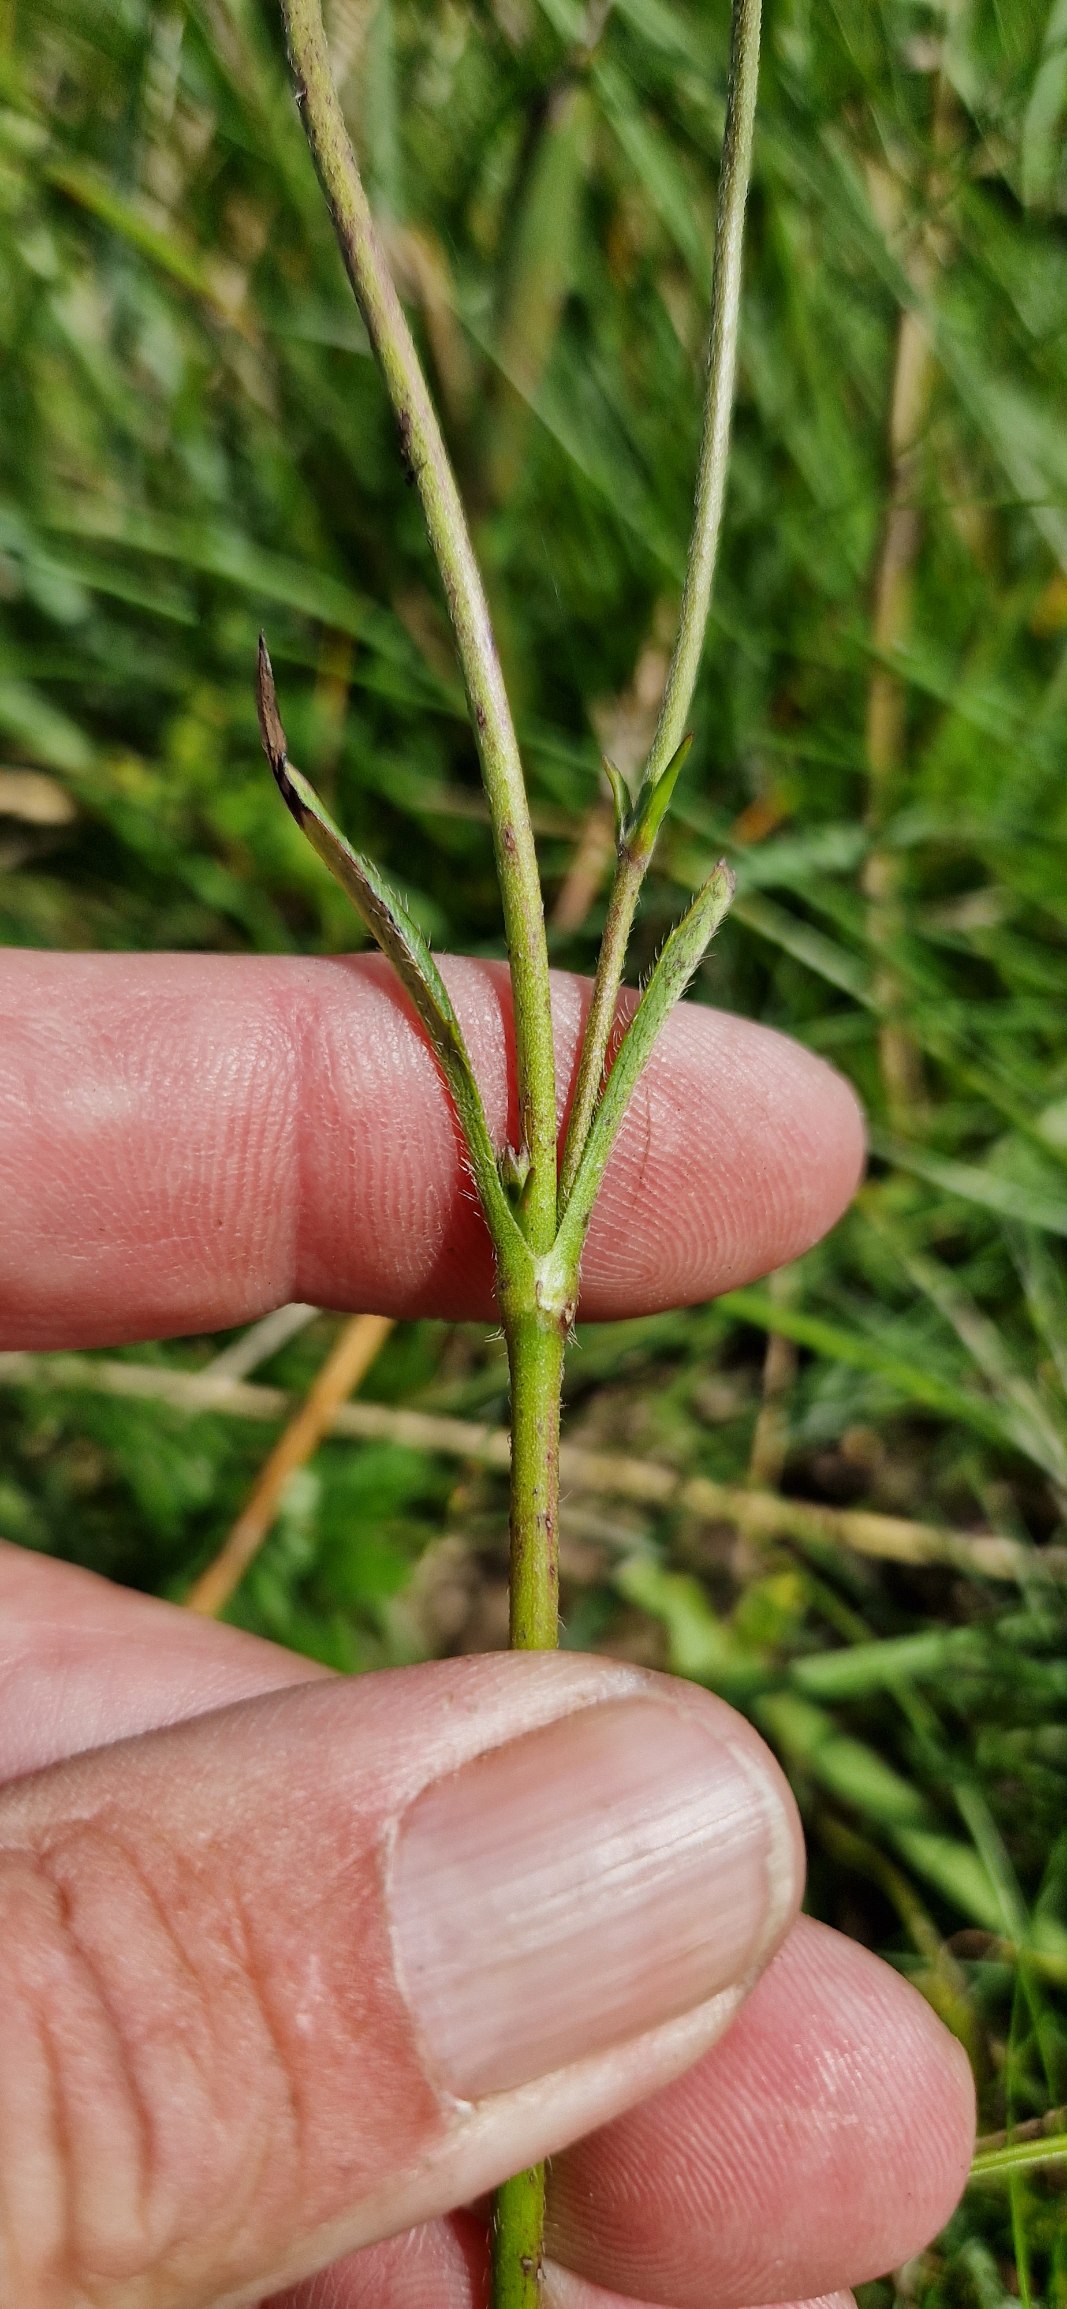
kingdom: Plantae
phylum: Tracheophyta
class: Magnoliopsida
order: Dipsacales
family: Caprifoliaceae
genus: Succisa
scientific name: Succisa pratensis
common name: Djævelsbid
